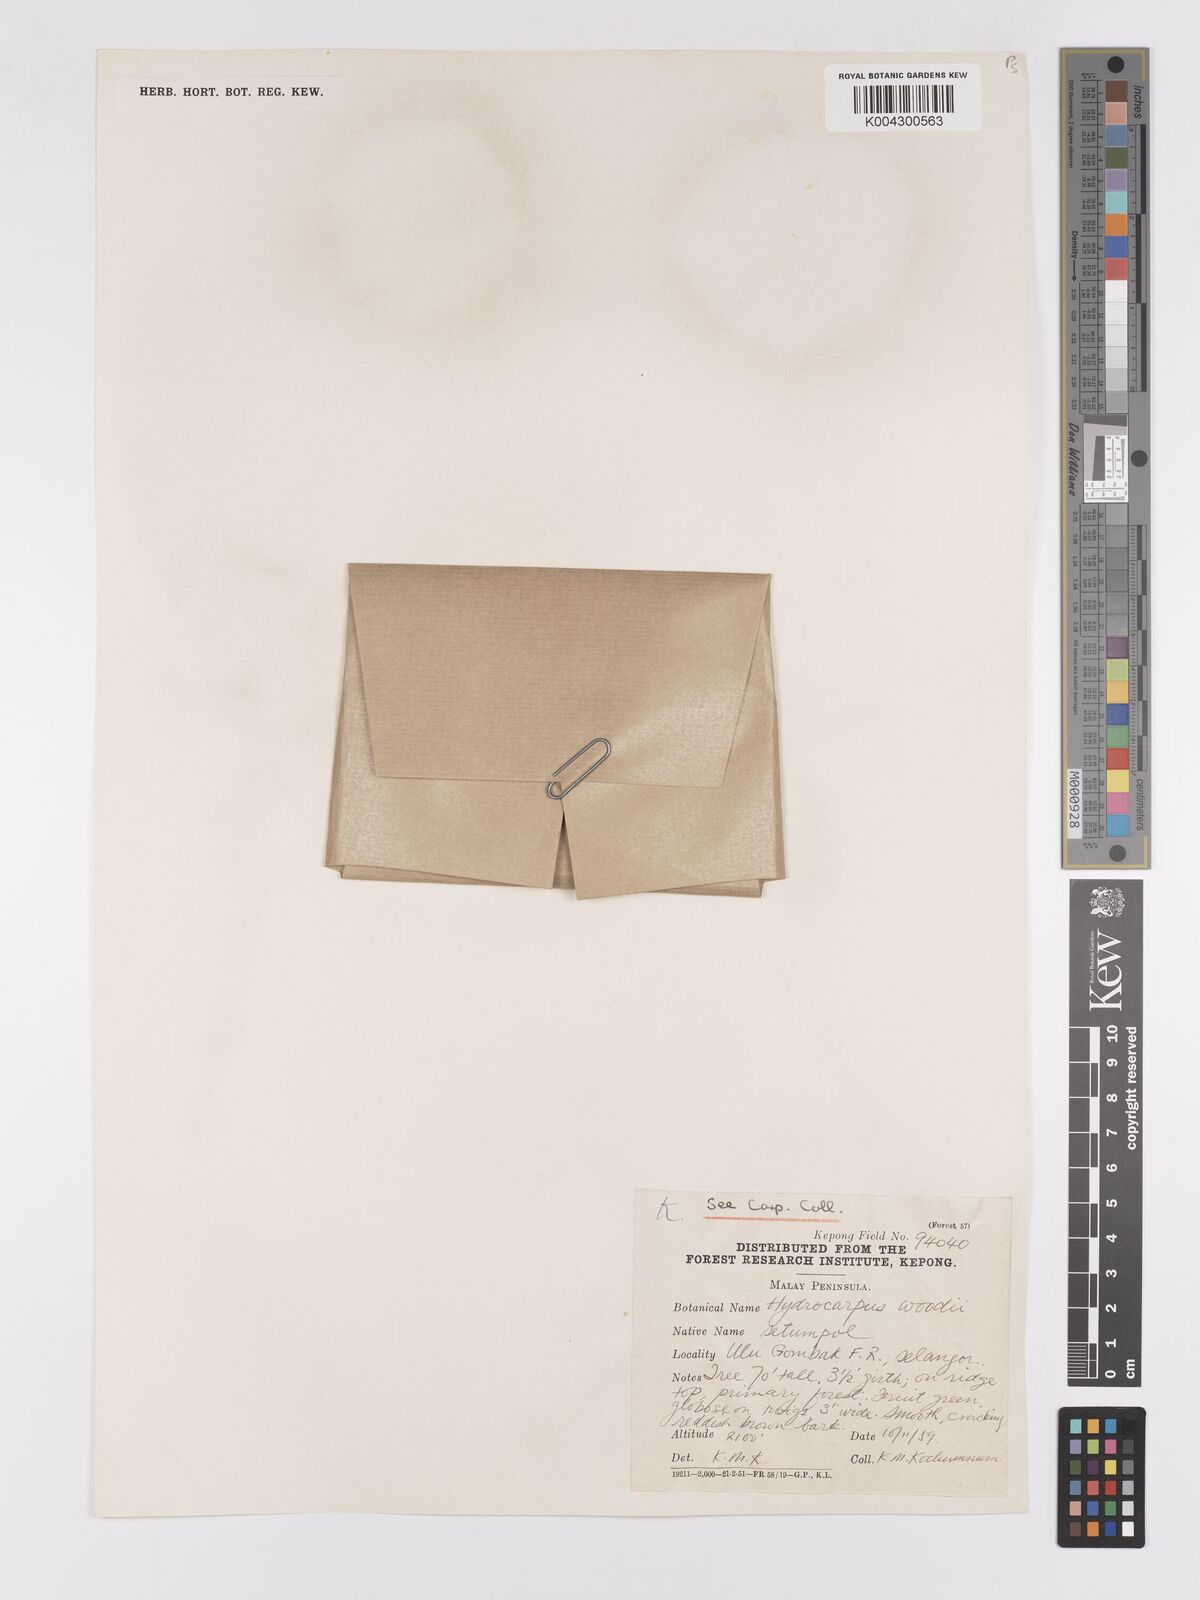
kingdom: Plantae
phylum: Tracheophyta
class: Magnoliopsida
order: Malpighiales
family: Achariaceae
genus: Hydnocarpus
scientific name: Hydnocarpus woodii
